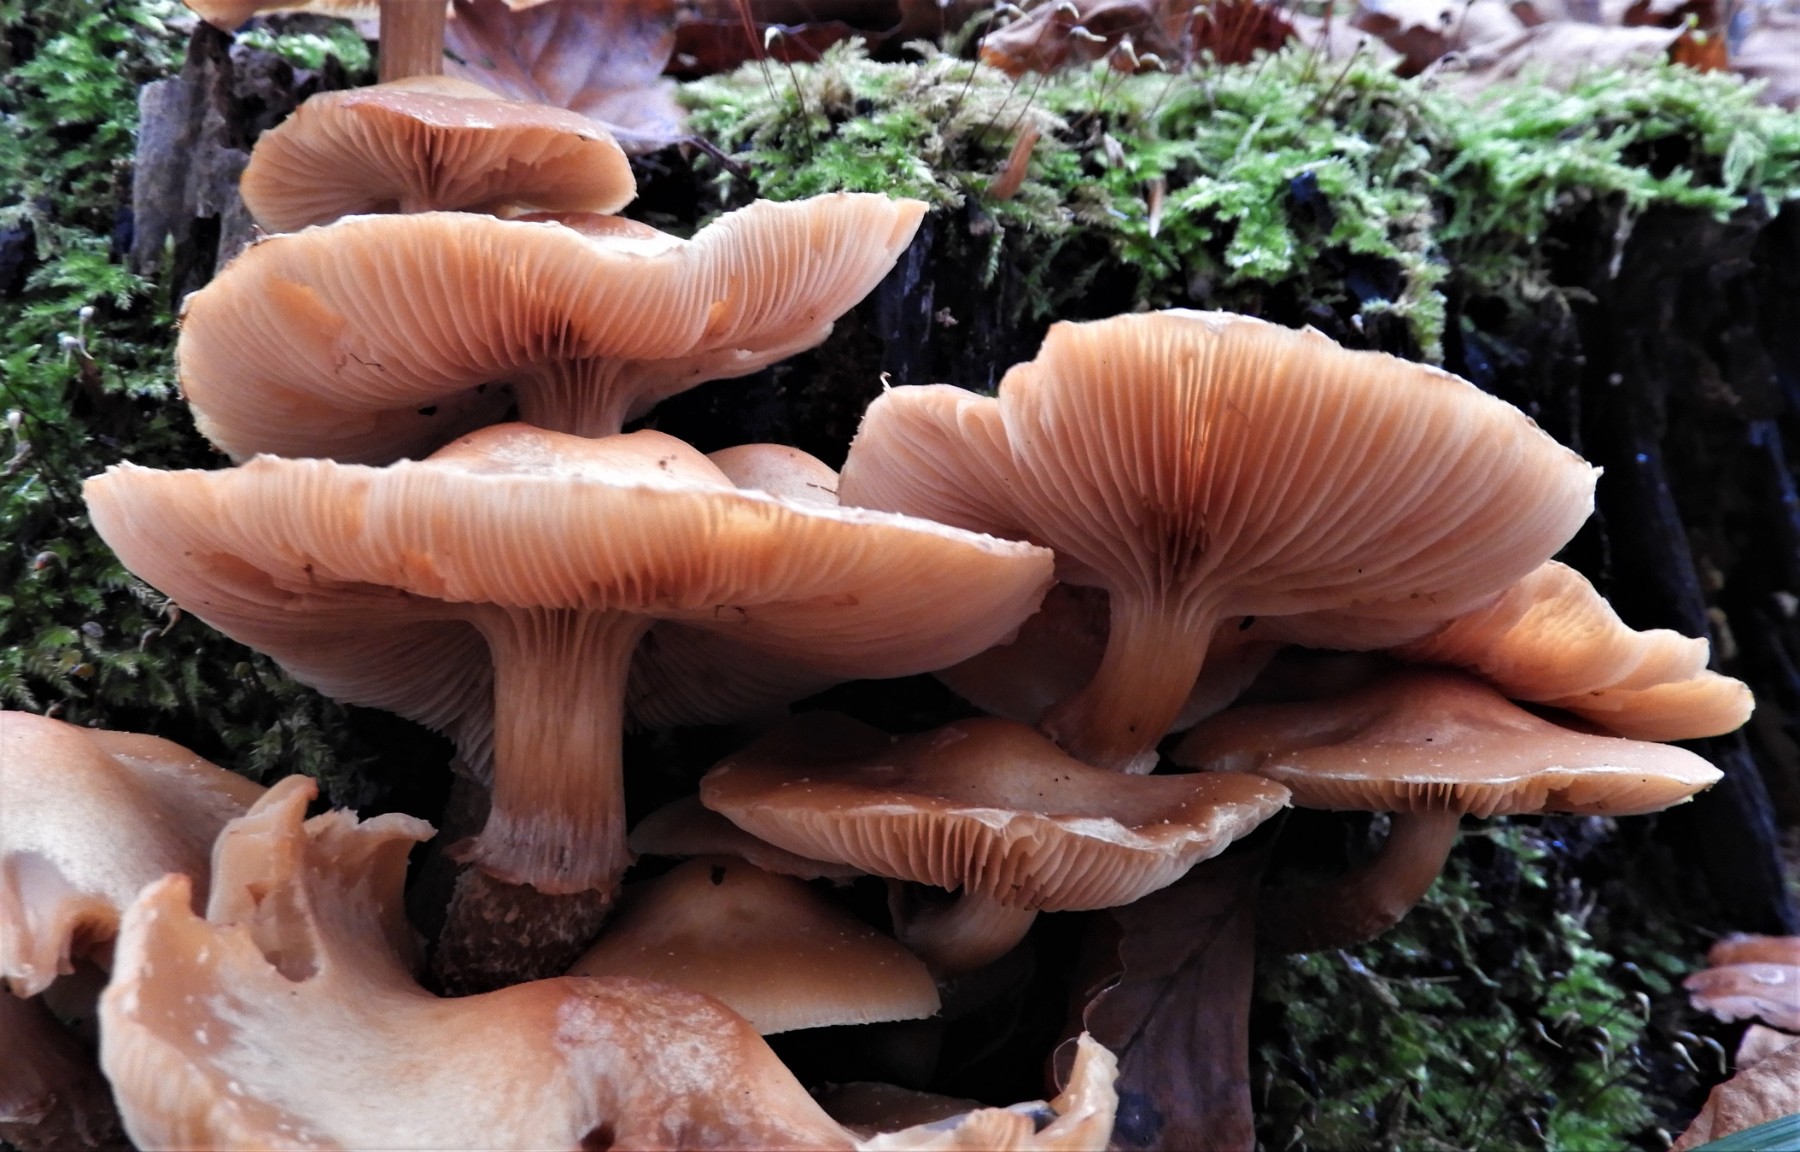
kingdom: Fungi
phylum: Basidiomycota
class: Agaricomycetes
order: Agaricales
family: Strophariaceae
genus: Kuehneromyces
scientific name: Kuehneromyces mutabilis
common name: foranderlig skælhat
